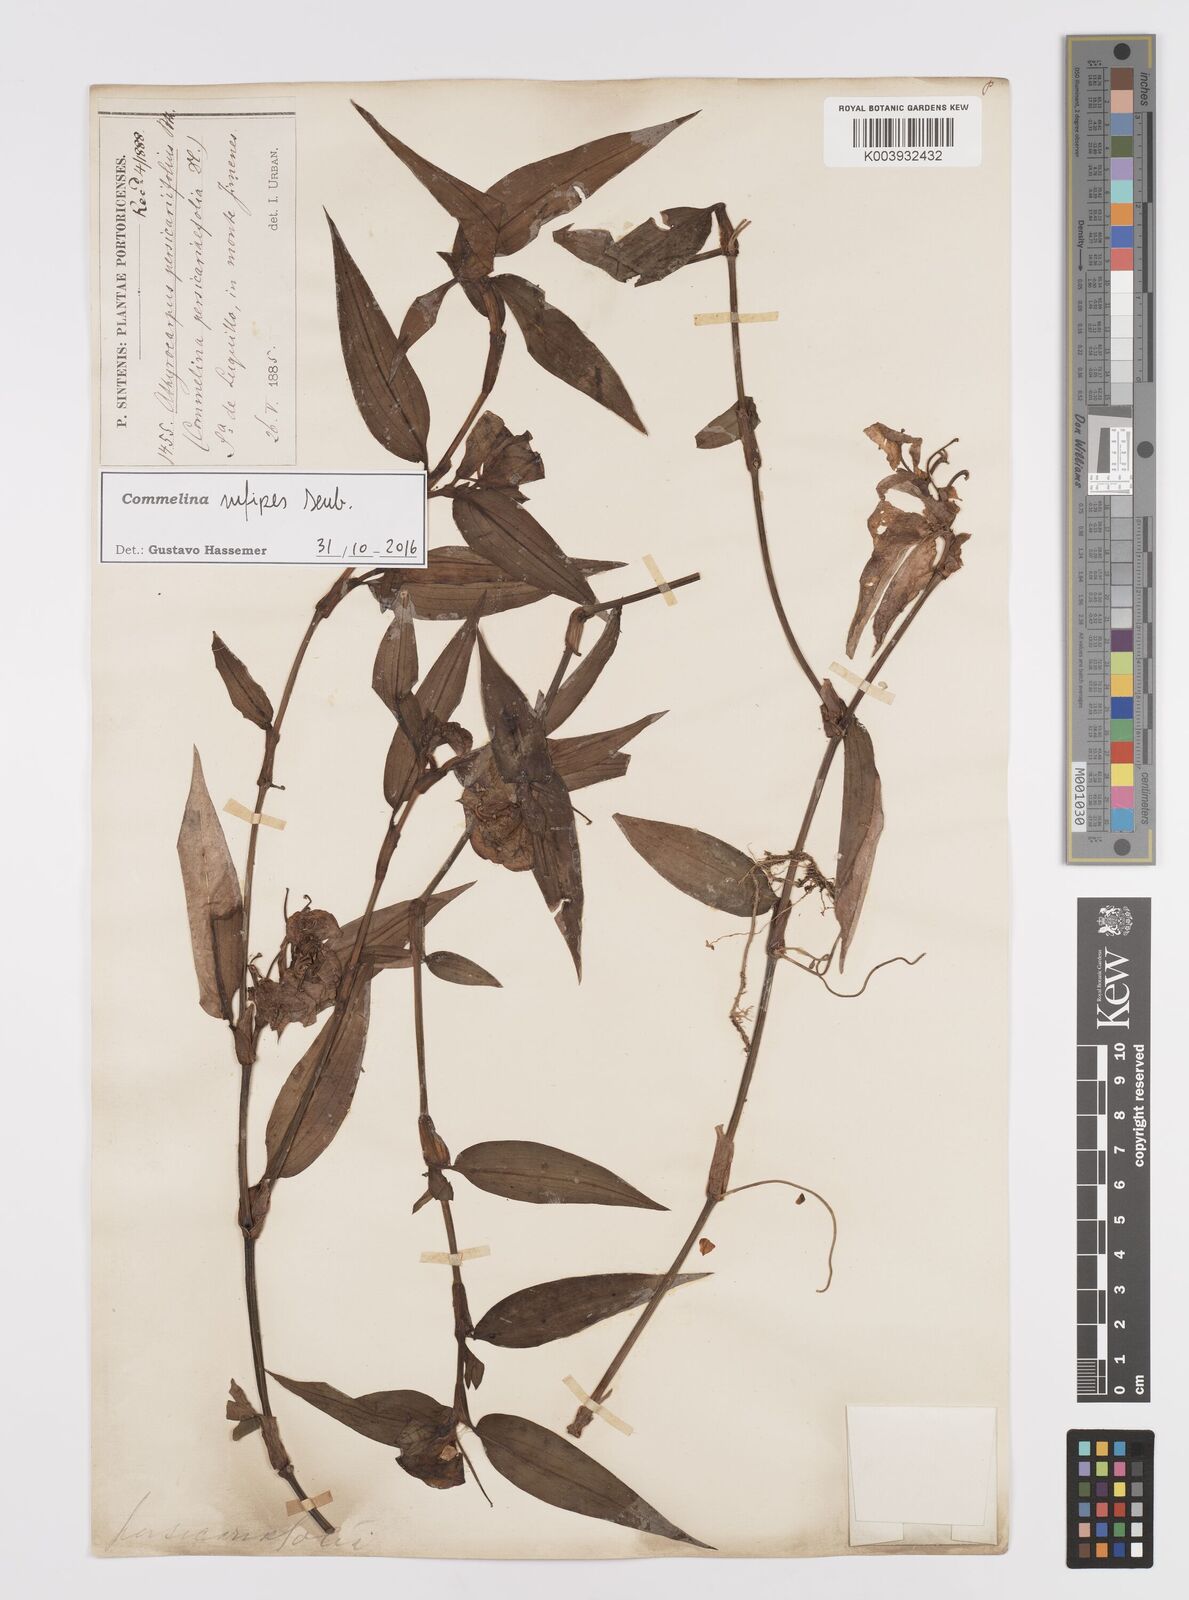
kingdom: Plantae
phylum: Tracheophyta
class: Liliopsida
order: Commelinales
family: Commelinaceae
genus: Commelina
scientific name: Commelina rufipes
